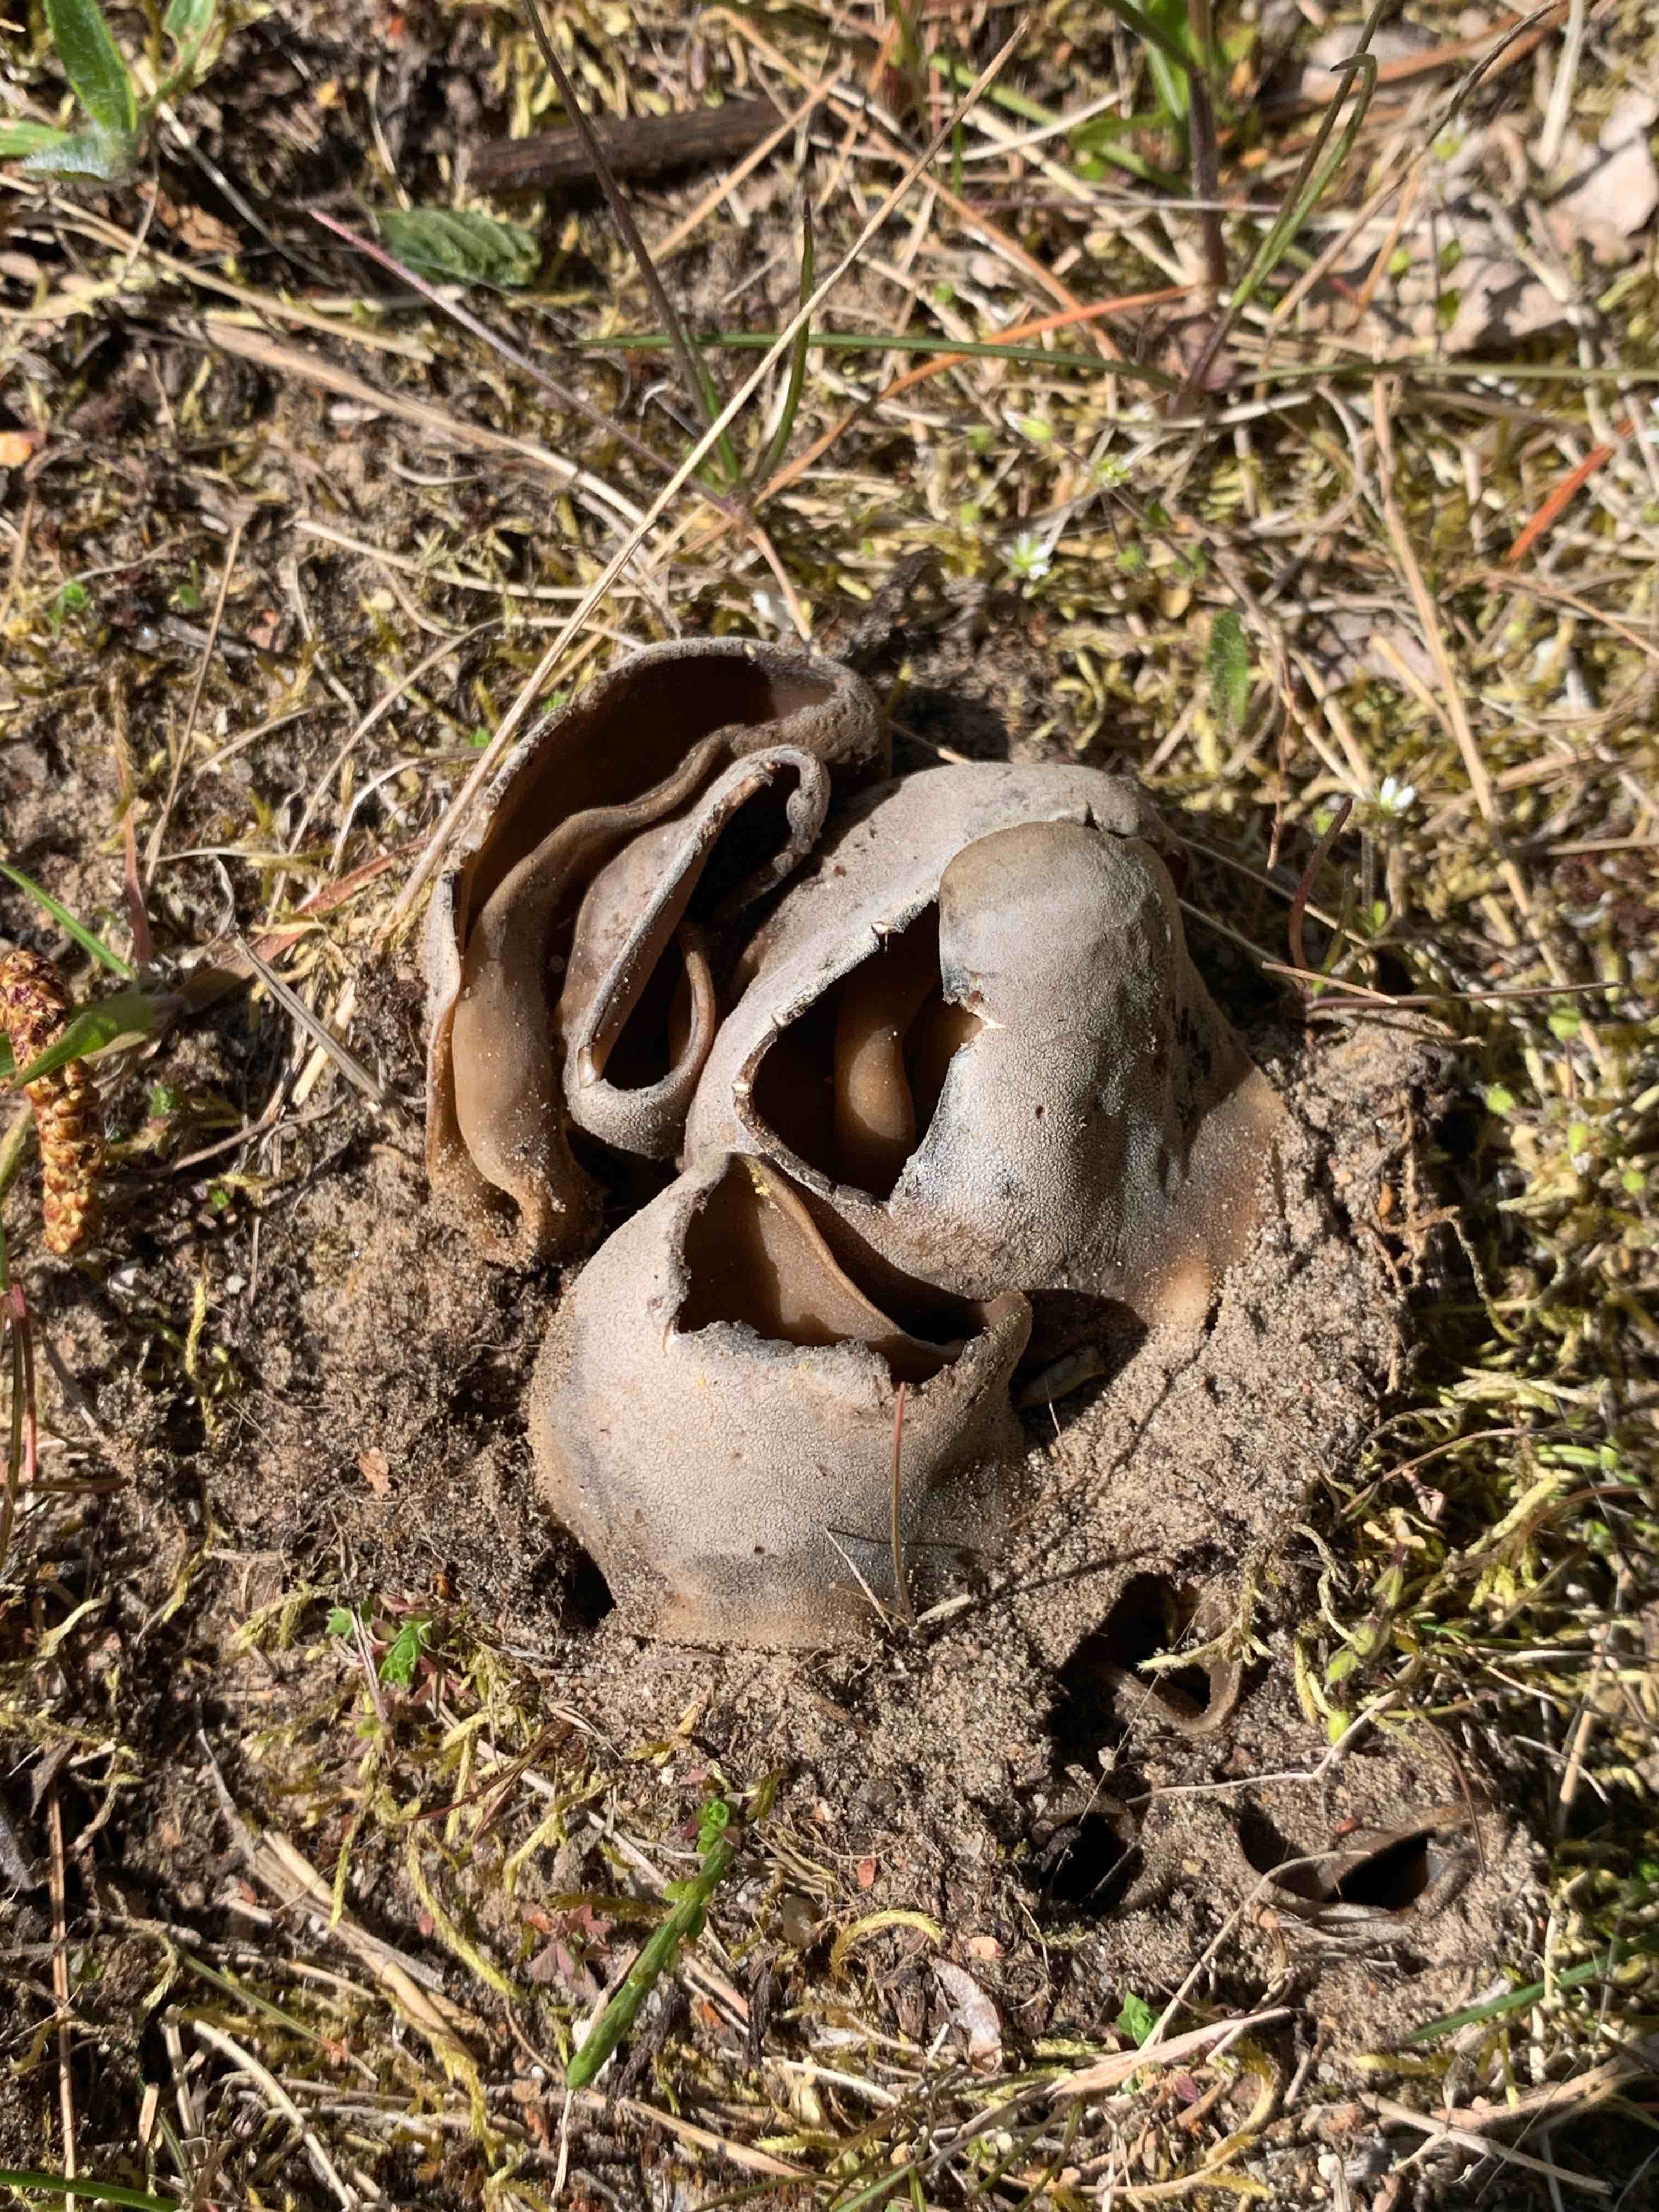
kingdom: Fungi
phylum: Ascomycota
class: Pezizomycetes
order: Pezizales
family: Helvellaceae
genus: Dissingia
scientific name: Dissingia leucomelaena
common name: sorthvid foldhat
